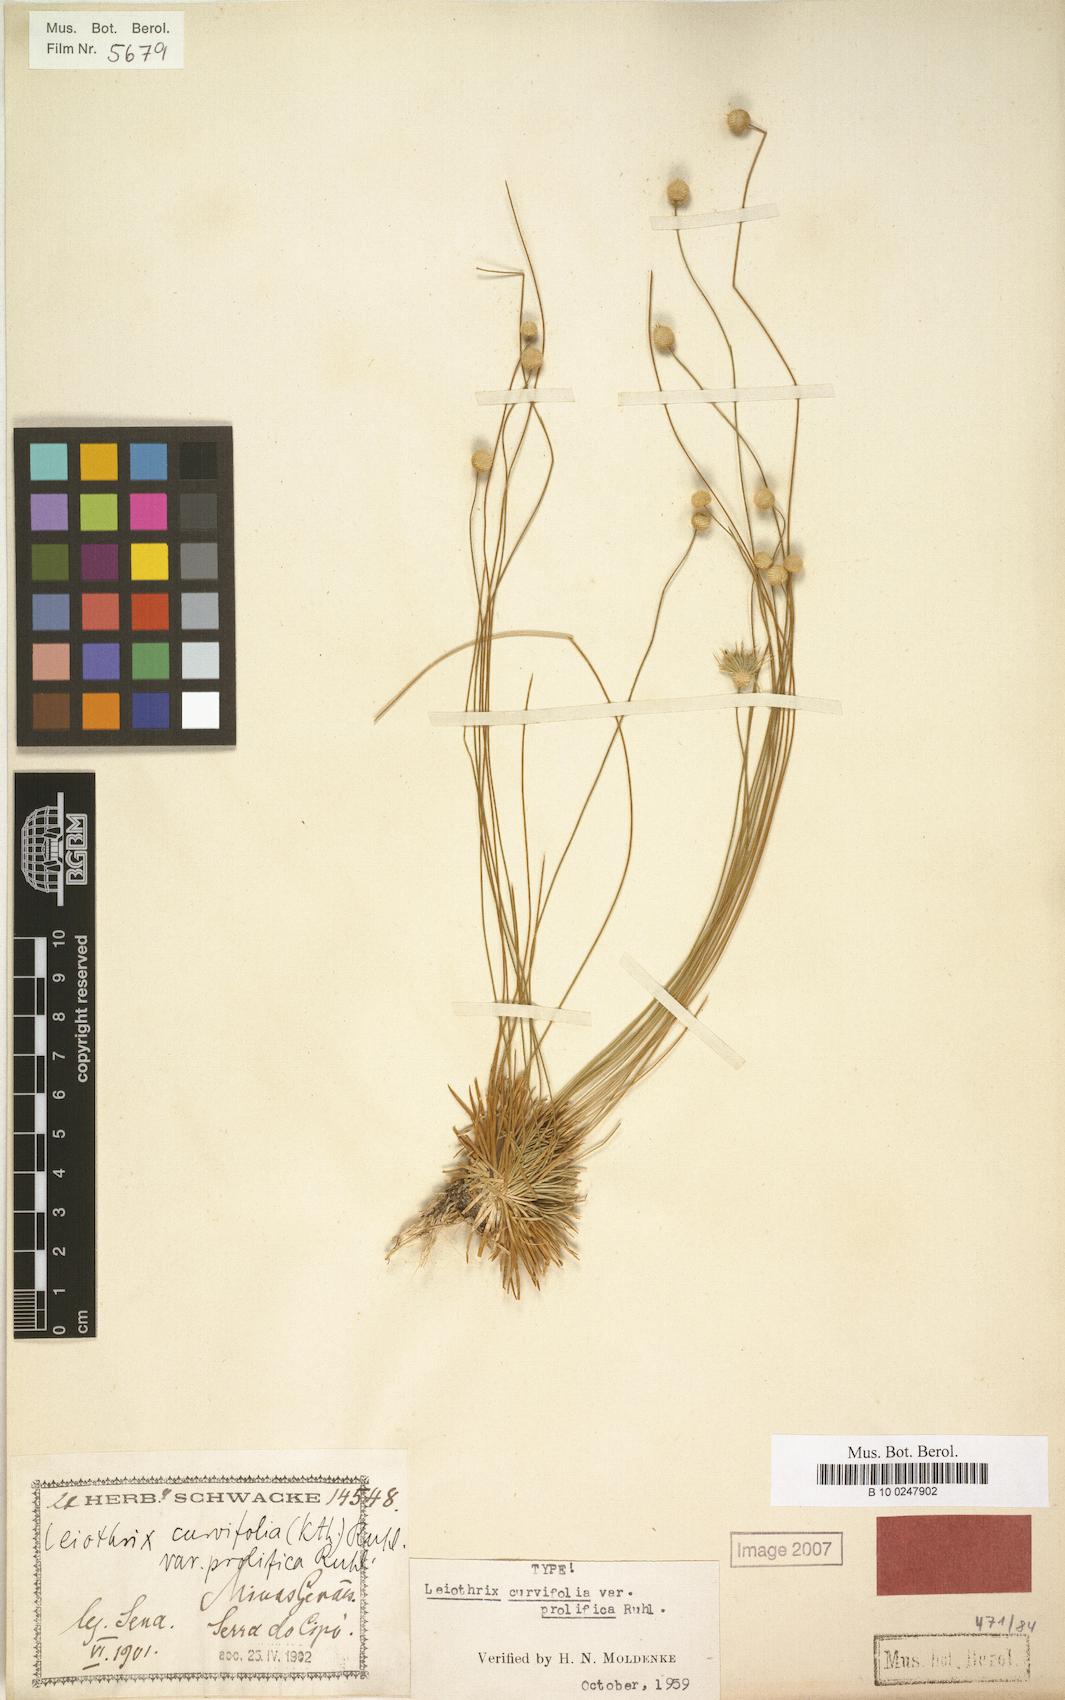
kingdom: Plantae
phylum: Tracheophyta
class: Liliopsida
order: Poales
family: Eriocaulaceae
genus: Leiothrix
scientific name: Leiothrix plantago
